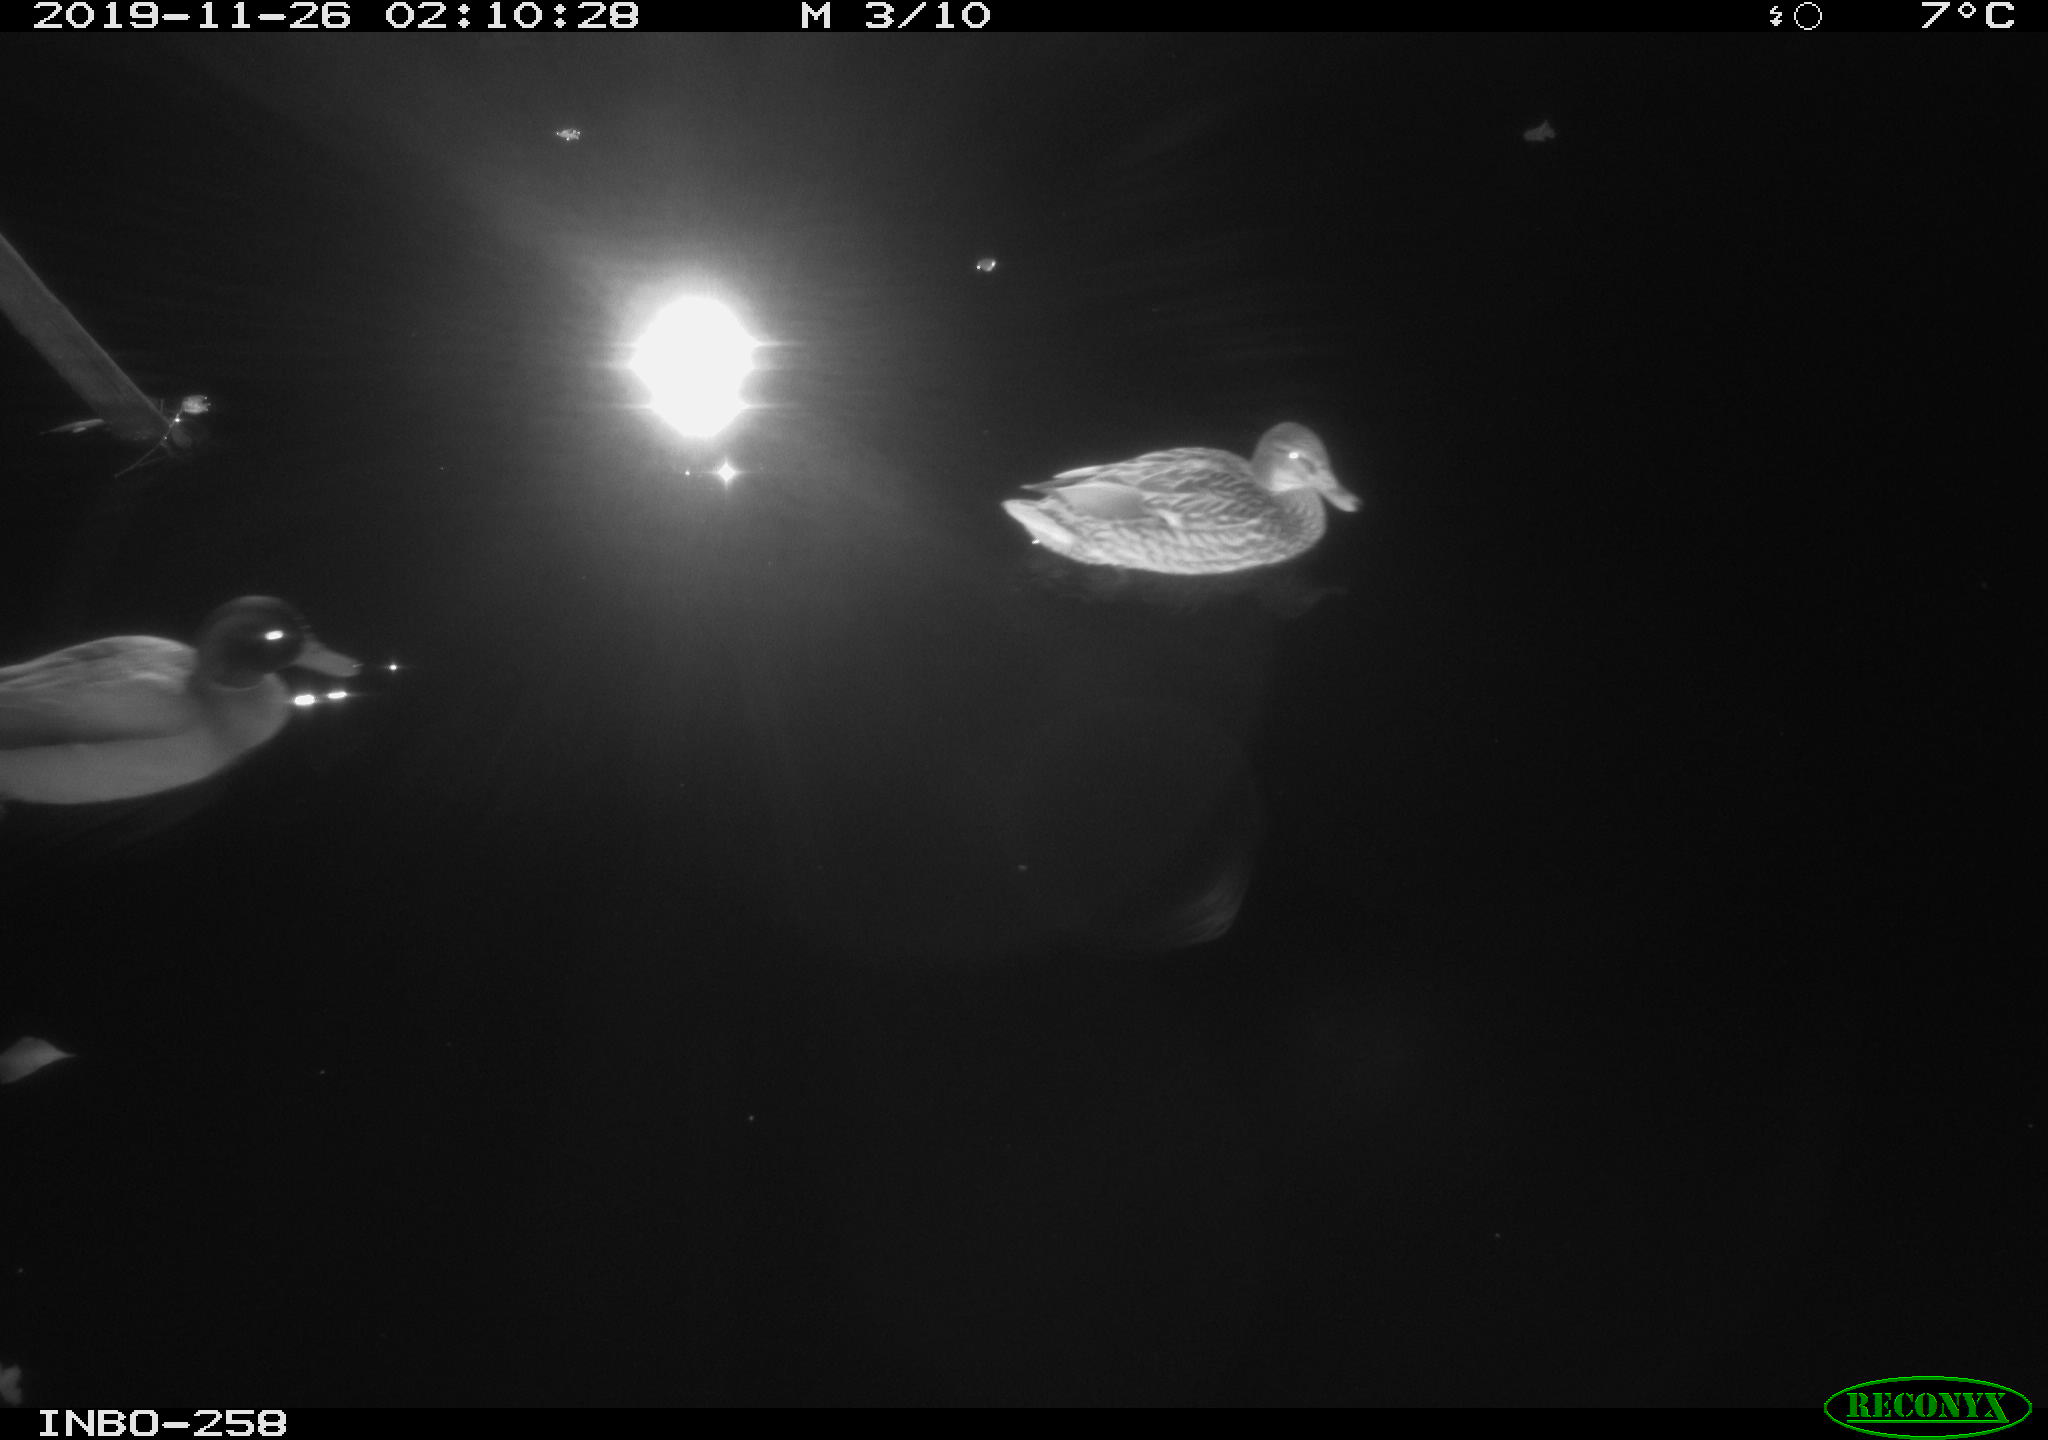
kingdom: Animalia
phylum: Chordata
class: Aves
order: Anseriformes
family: Anatidae
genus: Anas
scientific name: Anas platyrhynchos
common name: Mallard
